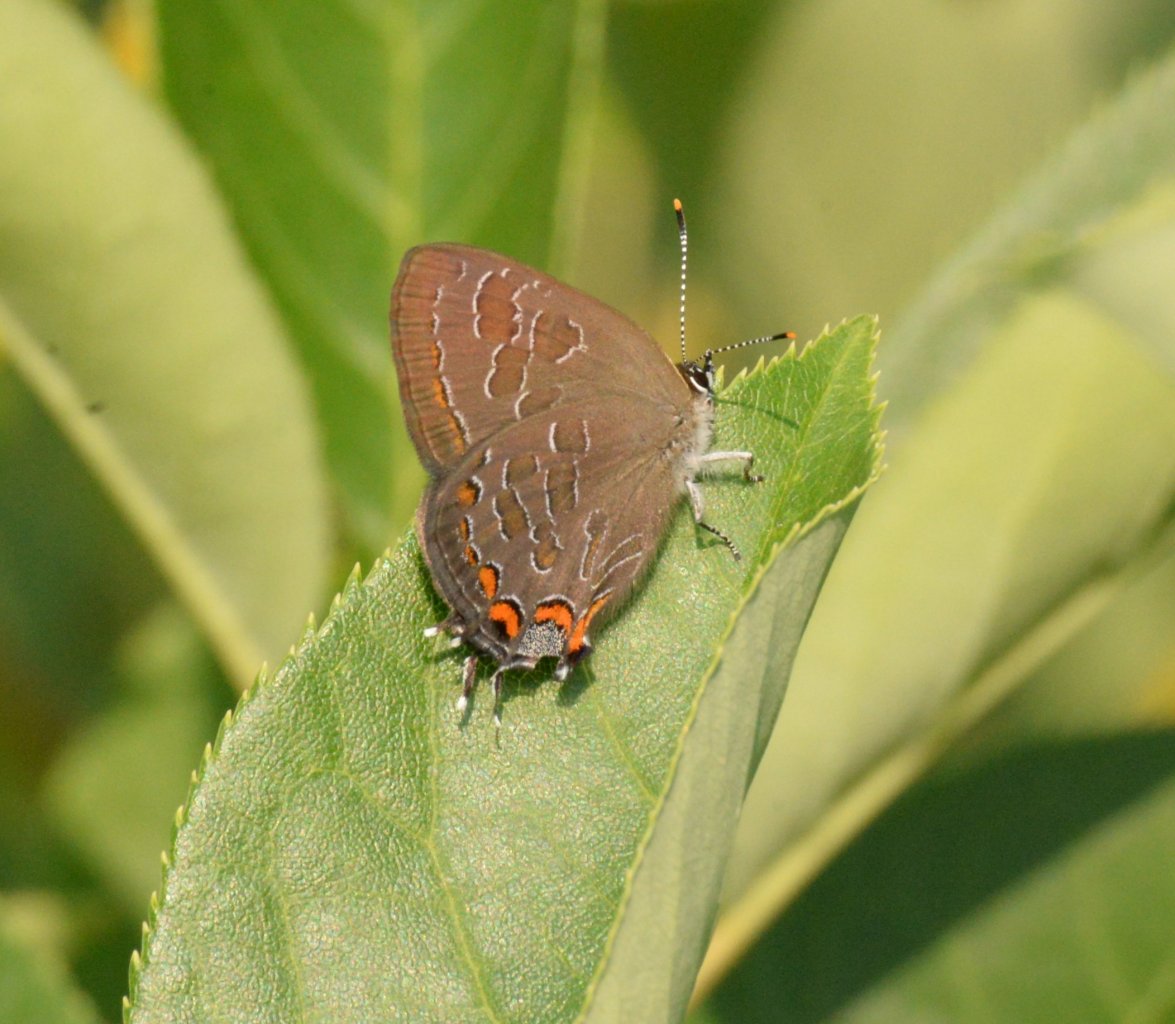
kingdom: Animalia
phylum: Arthropoda
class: Insecta
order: Lepidoptera
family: Lycaenidae
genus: Satyrium
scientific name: Satyrium liparops
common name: Striped Hairstreak
